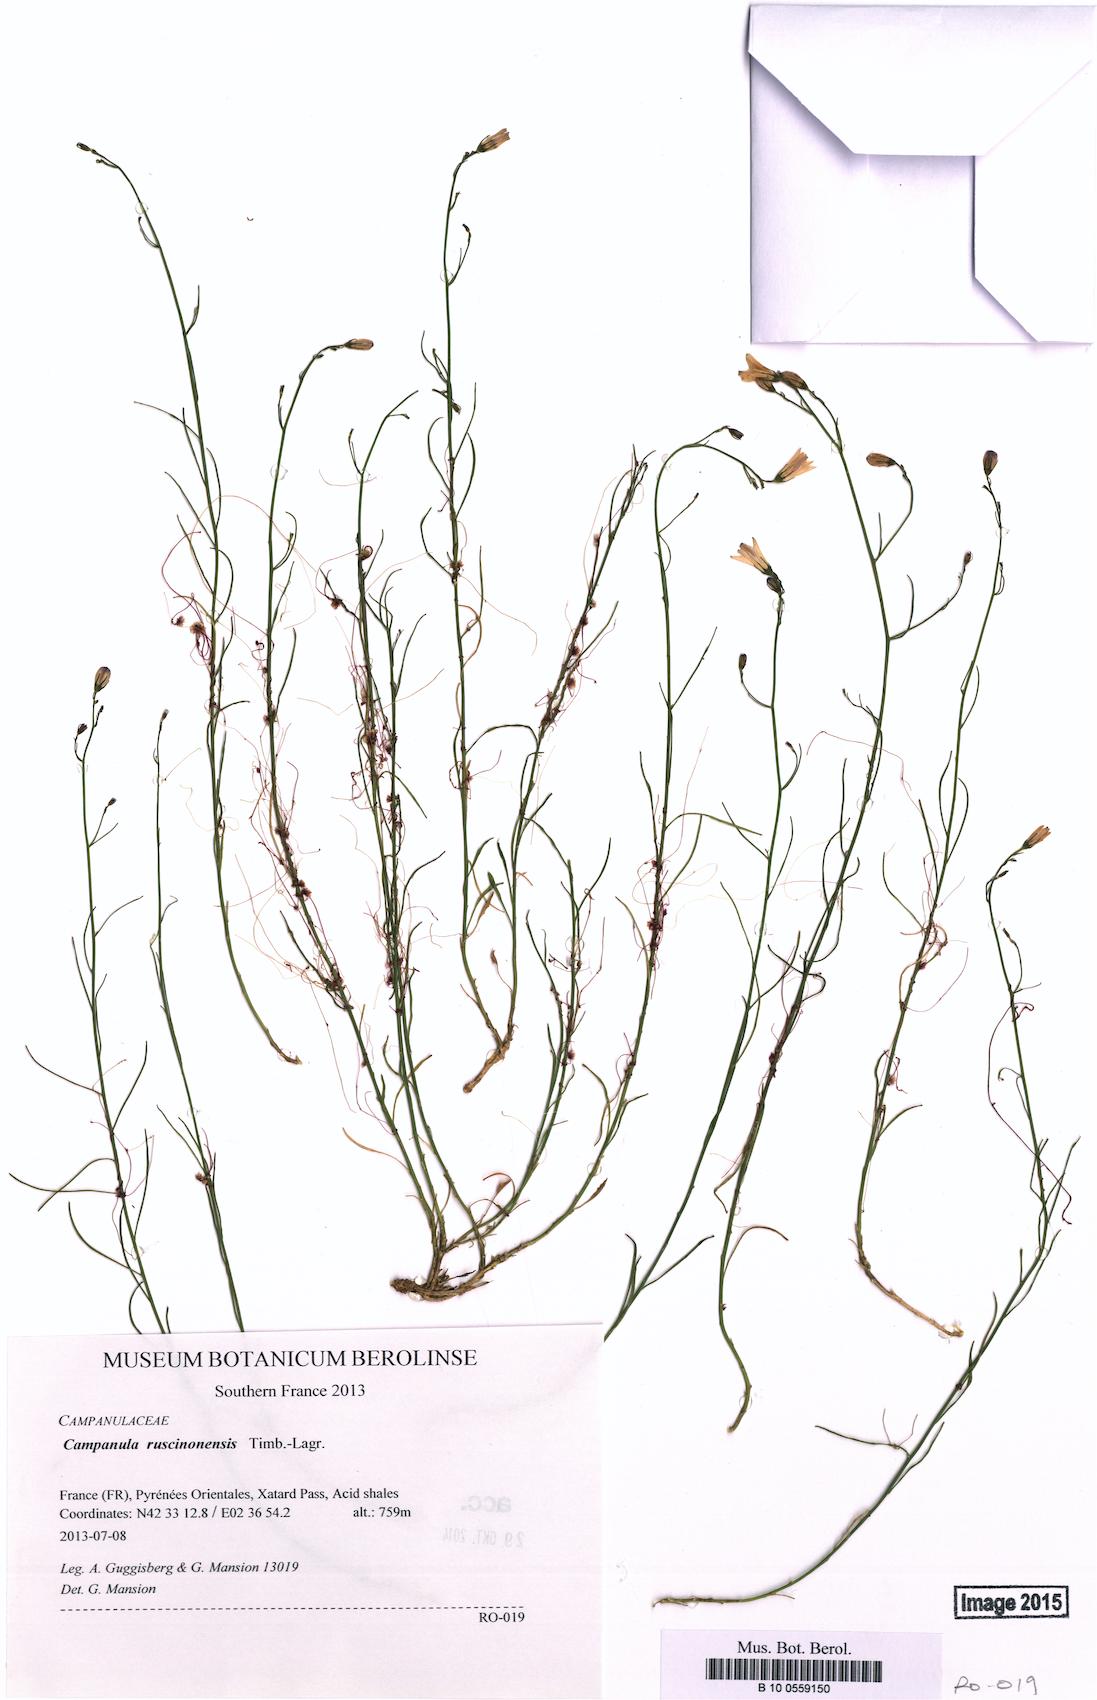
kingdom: Plantae
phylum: Tracheophyta
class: Magnoliopsida
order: Asterales
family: Campanulaceae
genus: Campanula
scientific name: Campanula ruscinonensis
